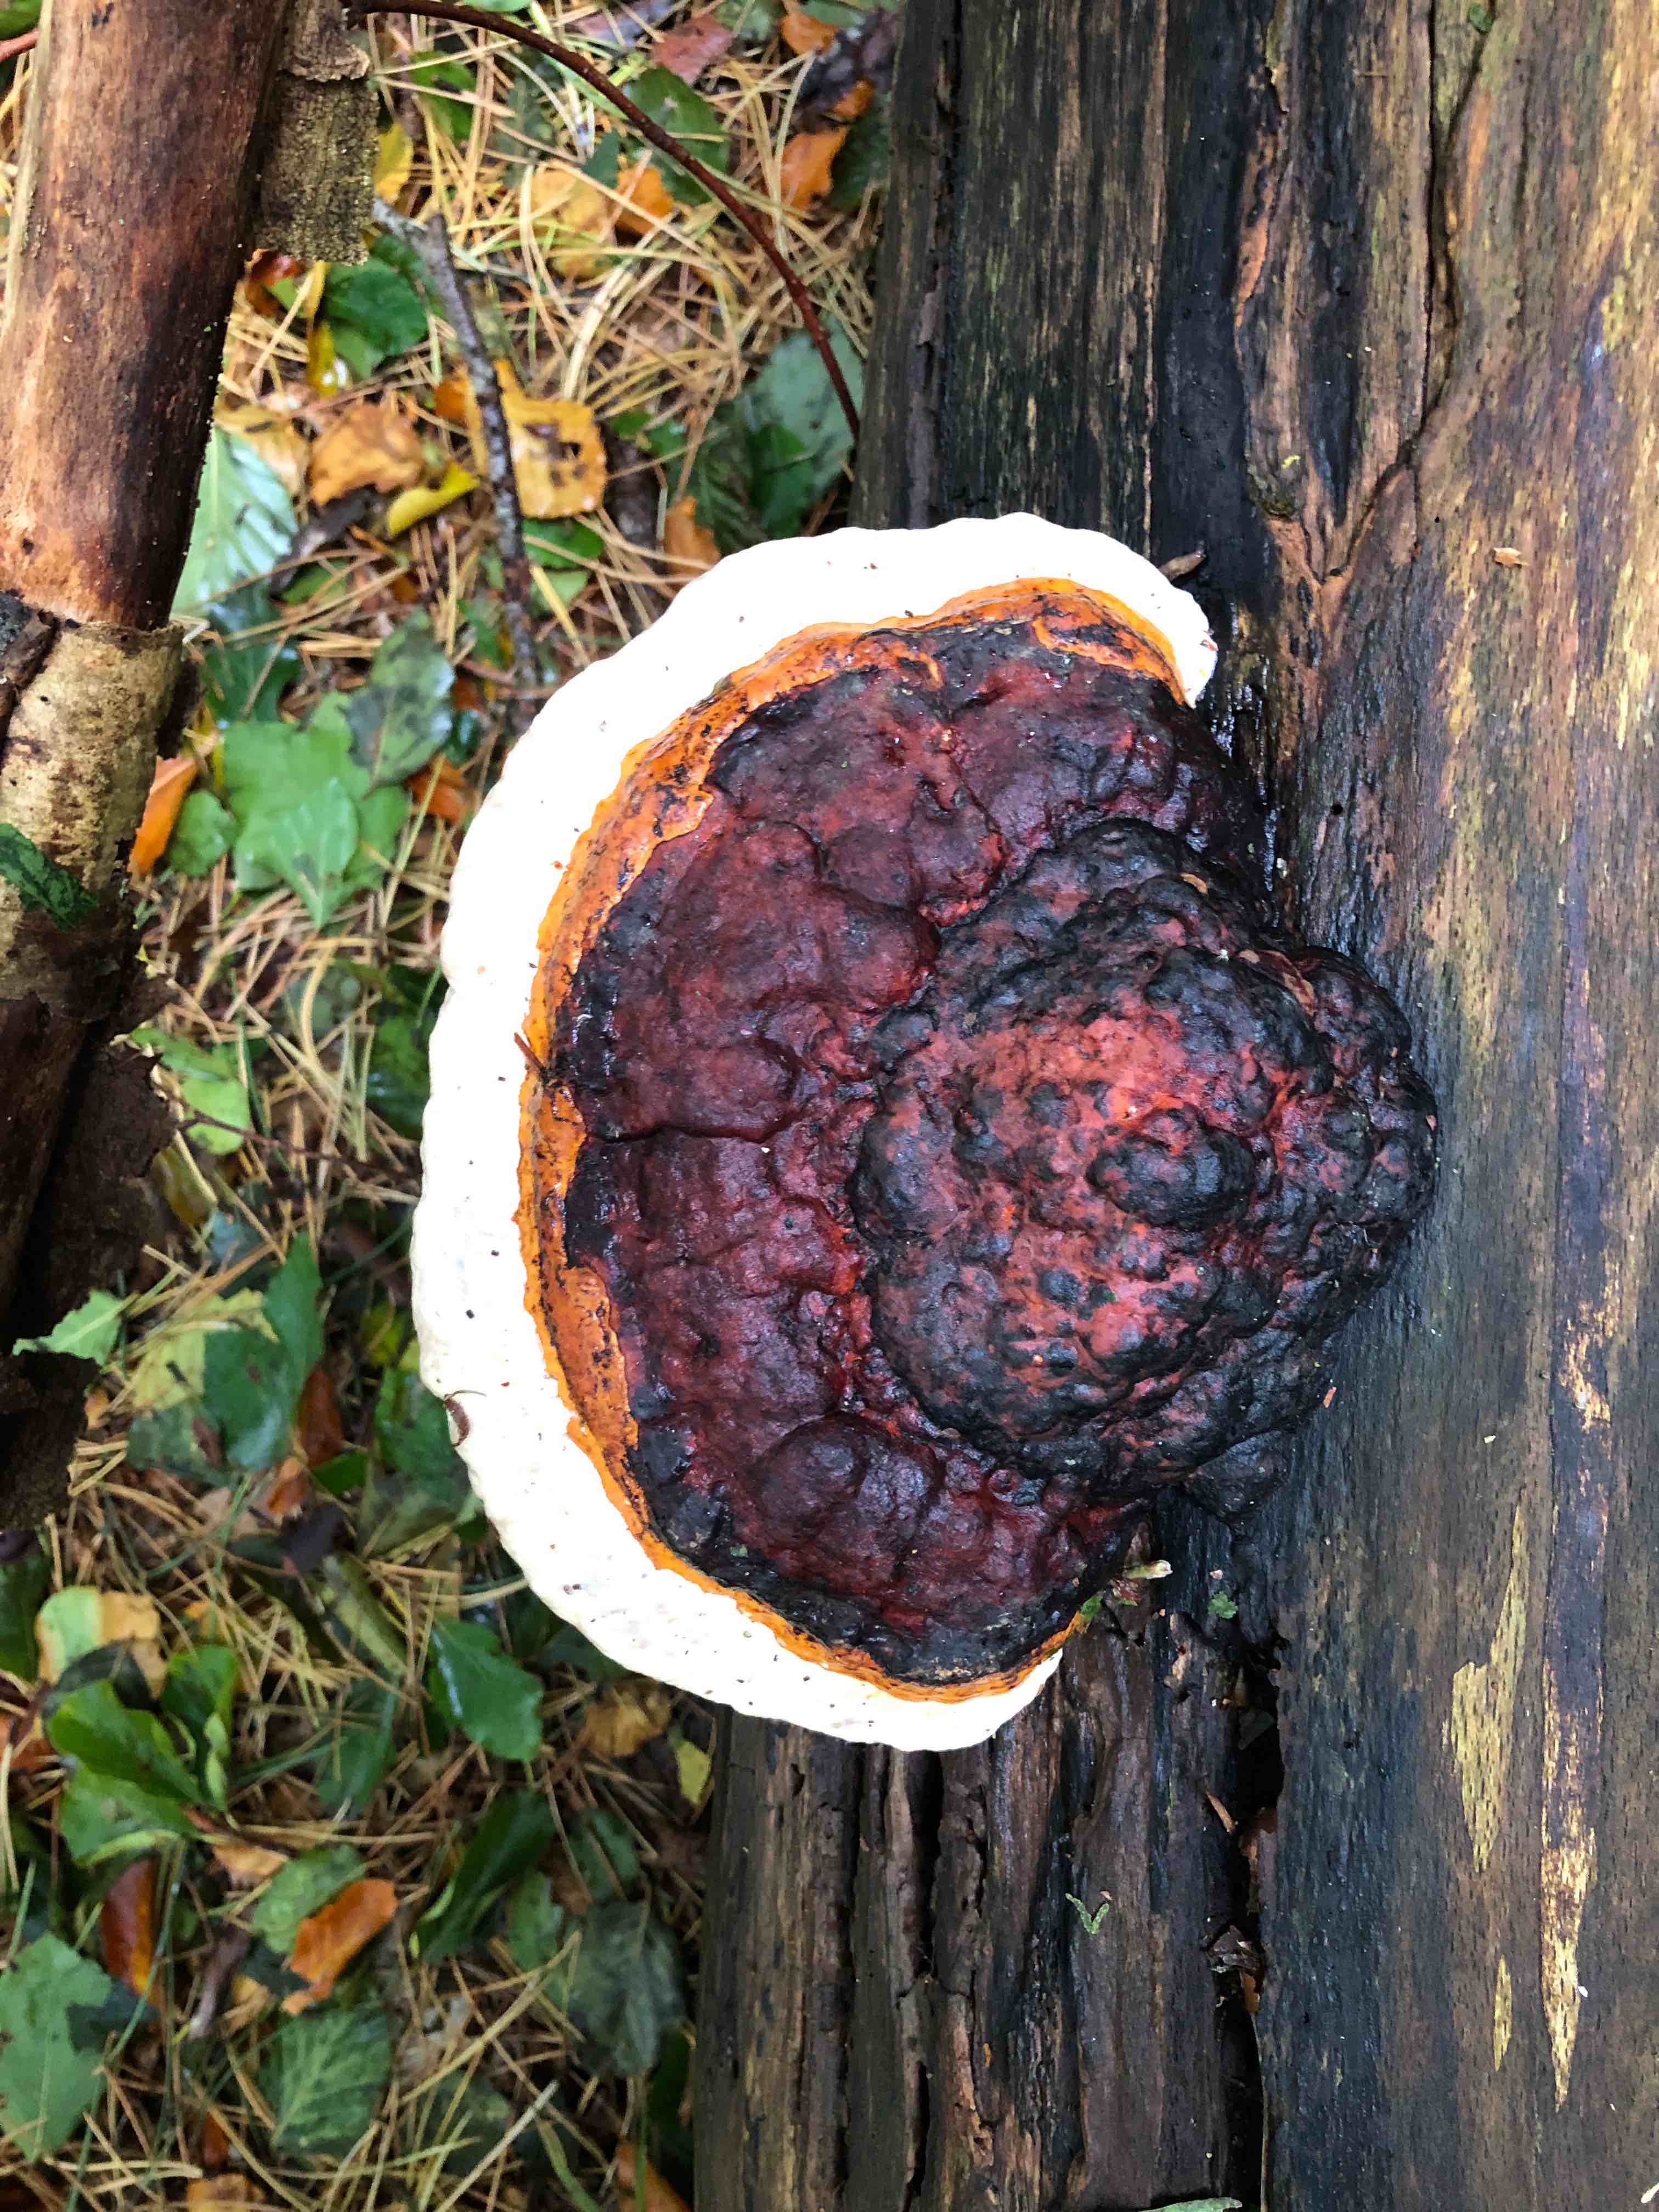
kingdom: Fungi
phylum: Basidiomycota
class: Agaricomycetes
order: Polyporales
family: Fomitopsidaceae
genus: Fomitopsis
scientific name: Fomitopsis pinicola
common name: randbæltet hovporesvamp
